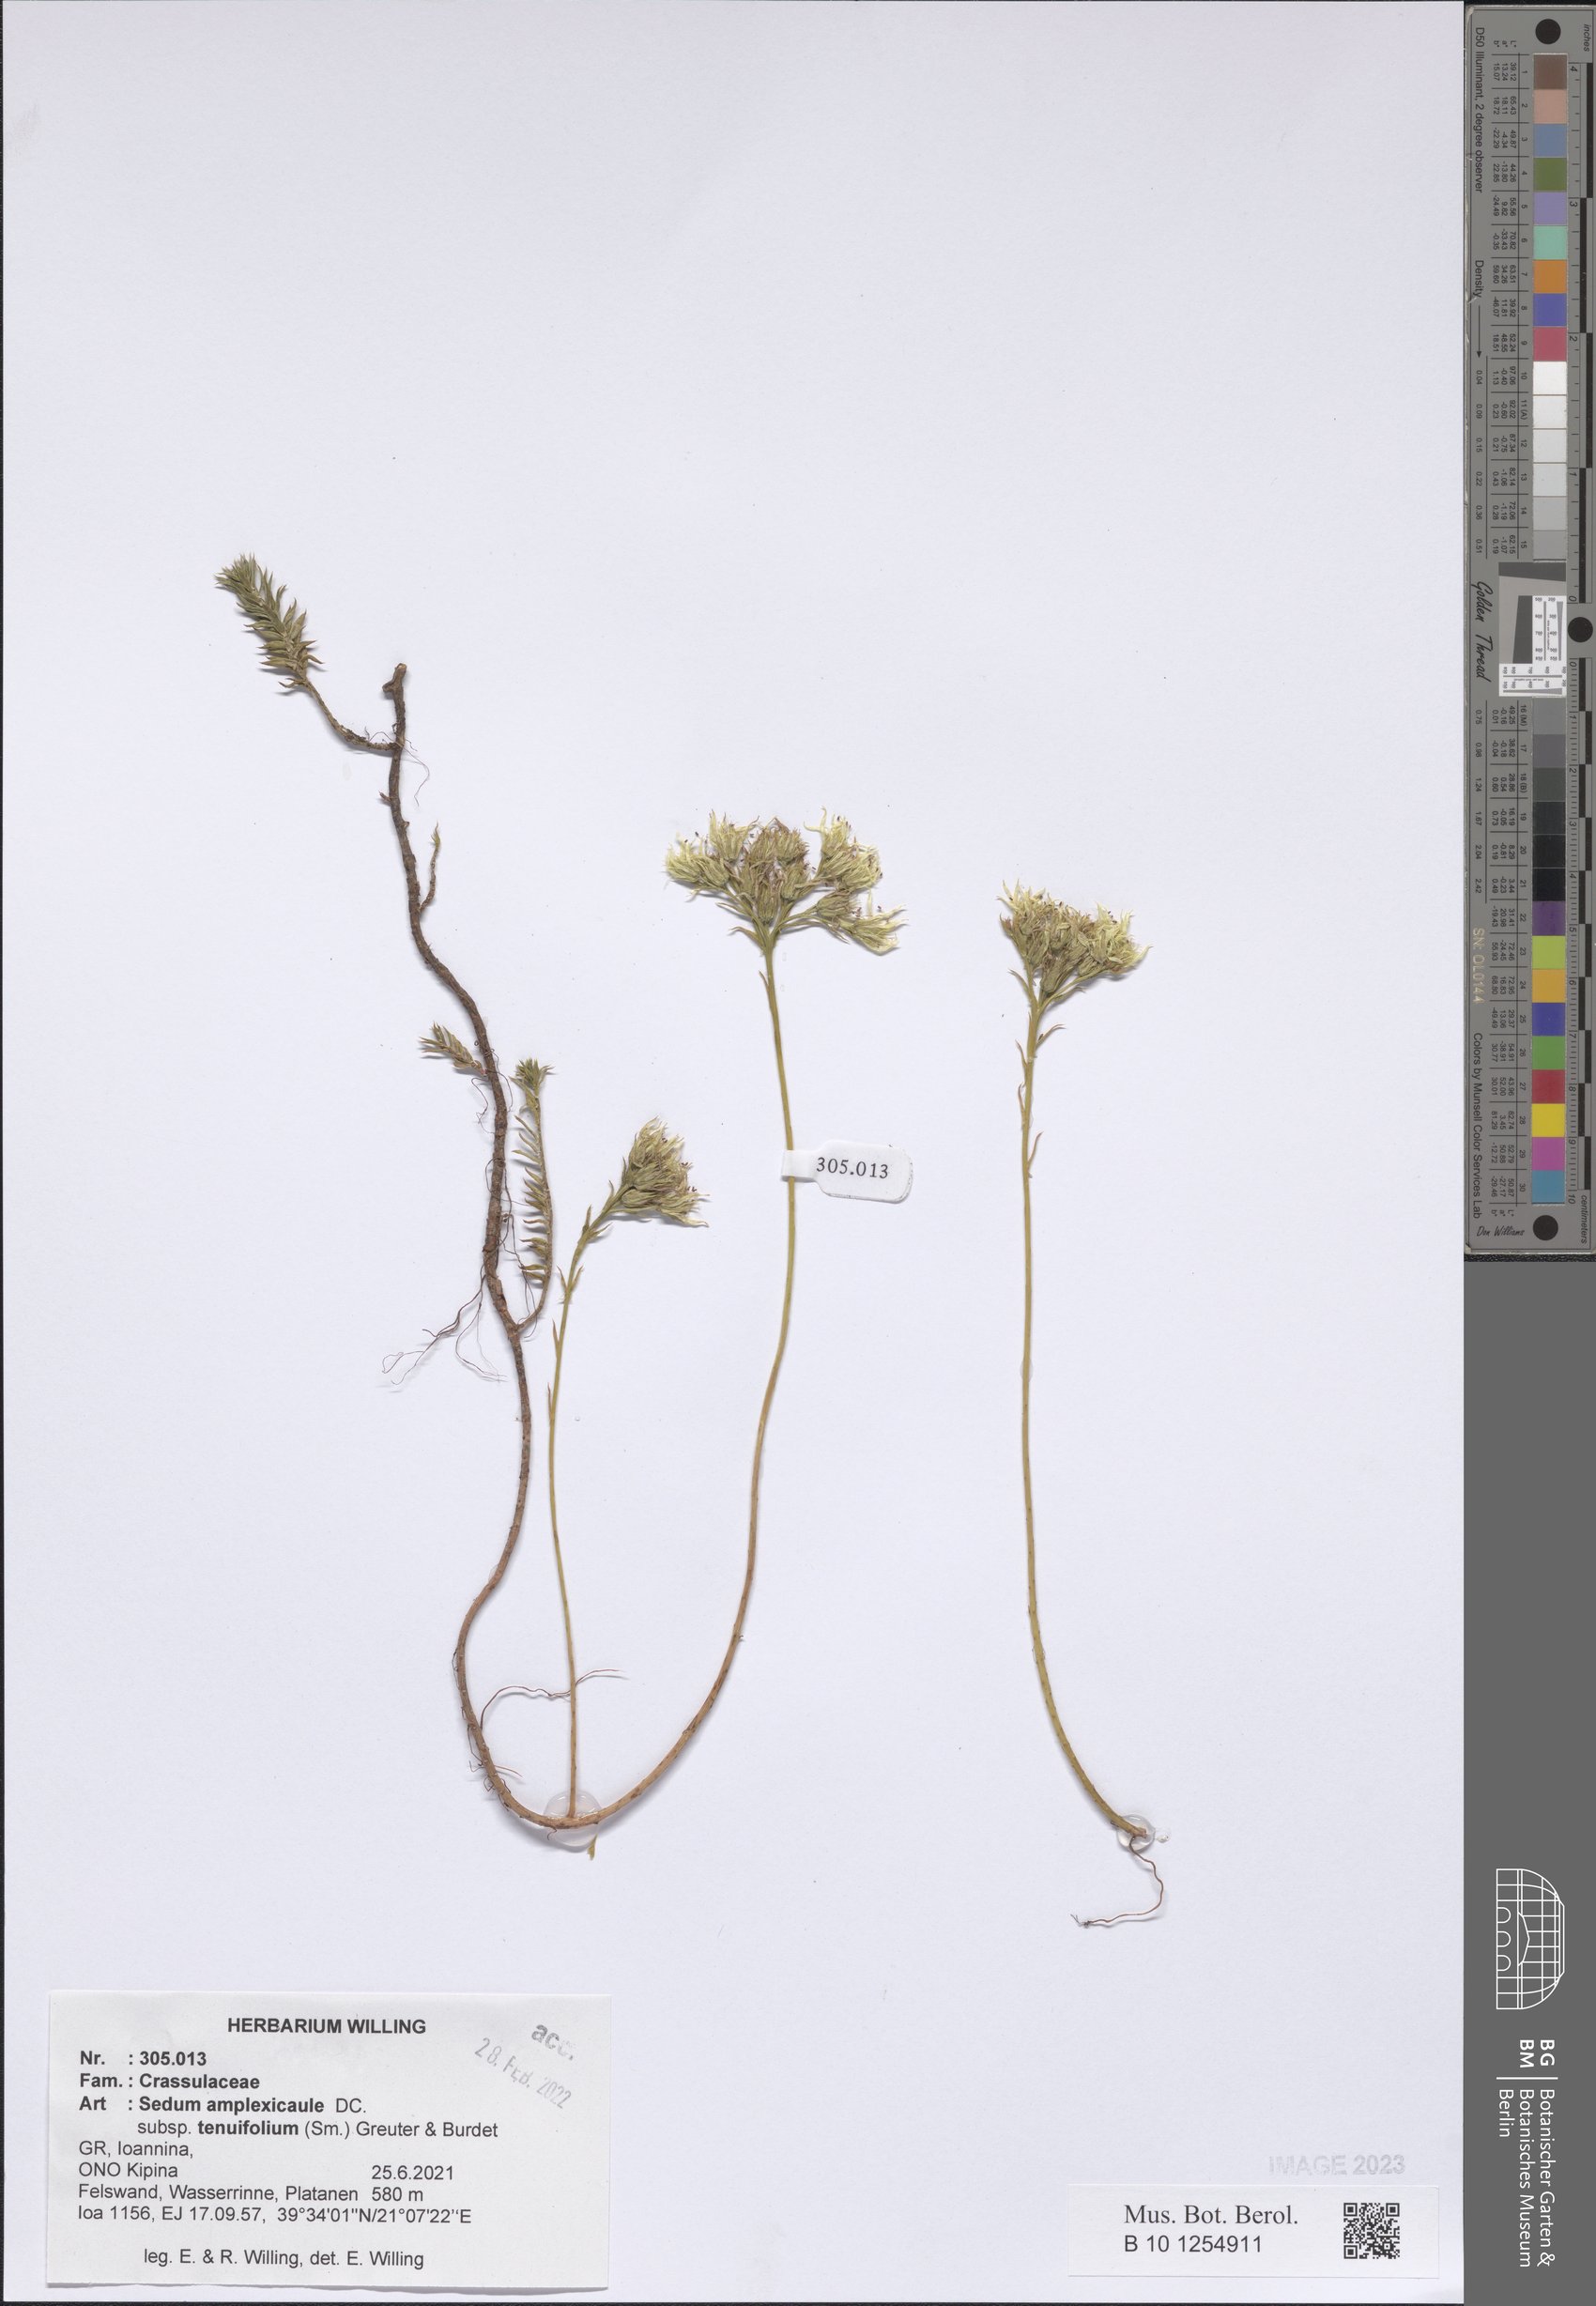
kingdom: Plantae
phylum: Tracheophyta
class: Magnoliopsida
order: Saxifragales
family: Crassulaceae
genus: Petrosedum
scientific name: Petrosedum tenuifolium
